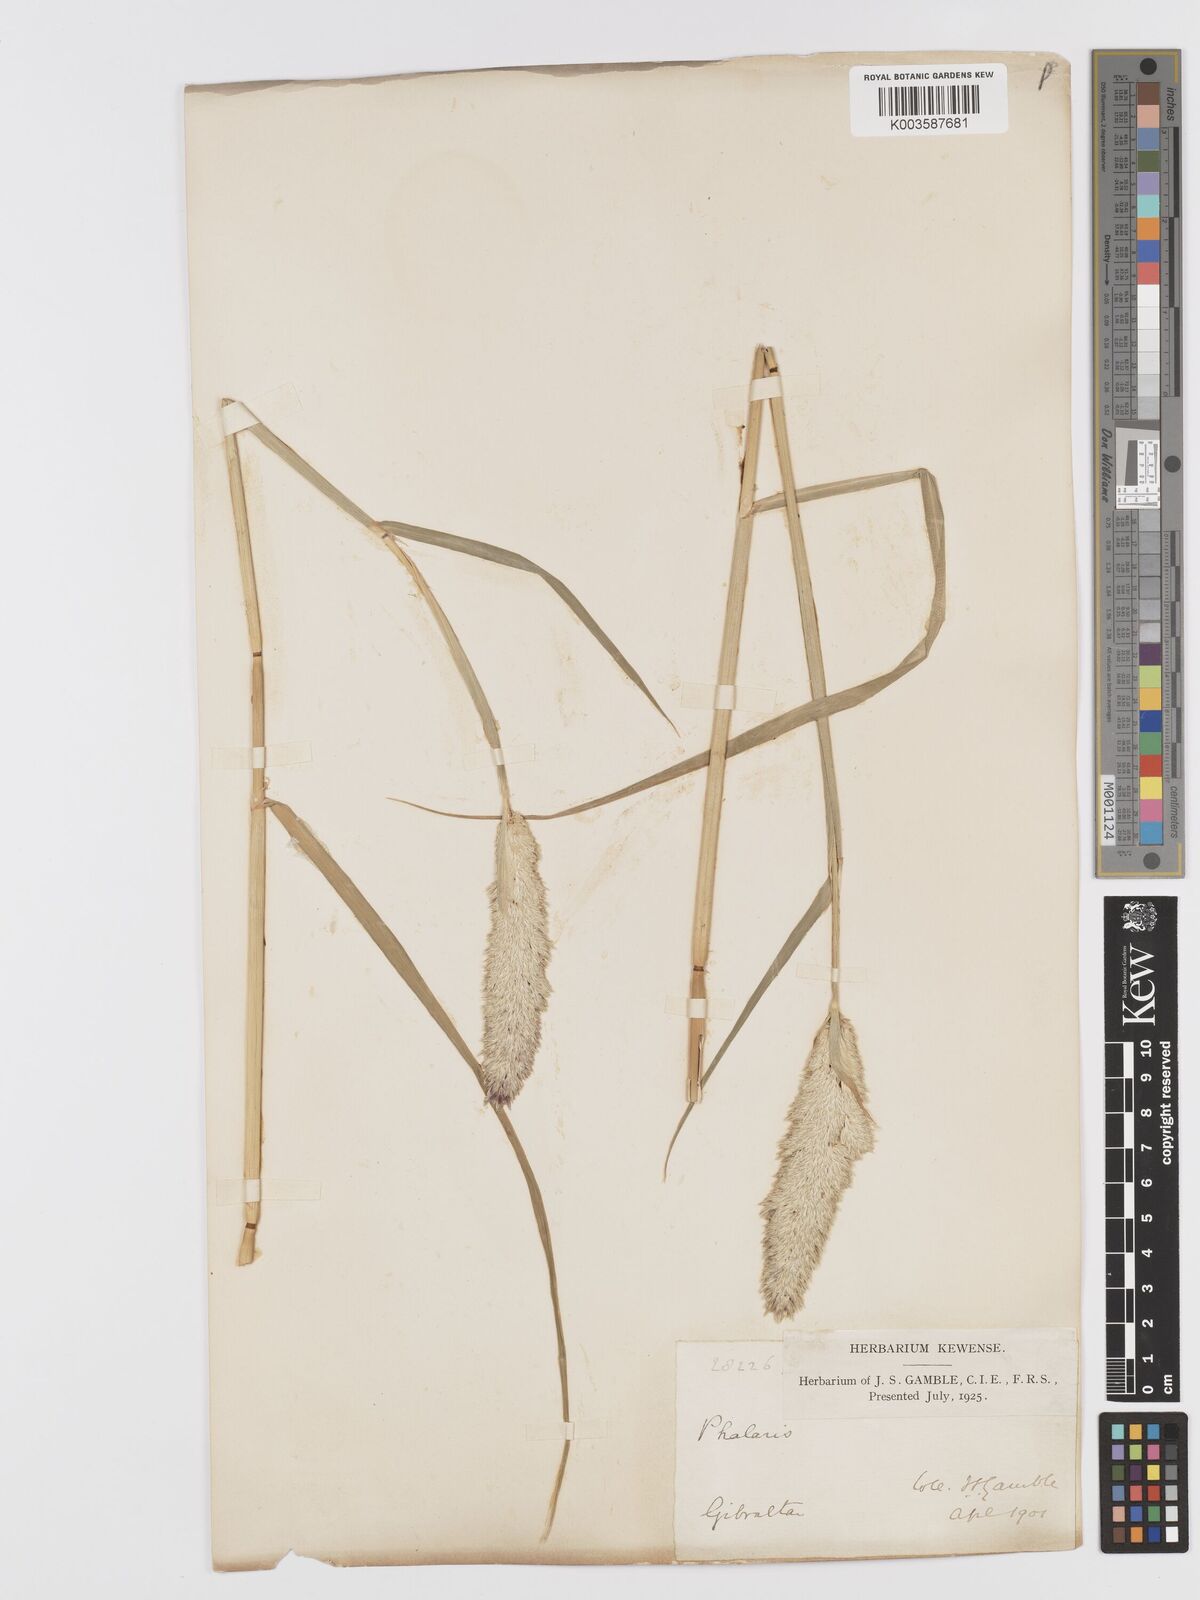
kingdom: Plantae
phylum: Tracheophyta
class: Liliopsida
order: Poales
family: Poaceae
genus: Phalaris
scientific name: Phalaris coerulescens
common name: Sunolgrass
